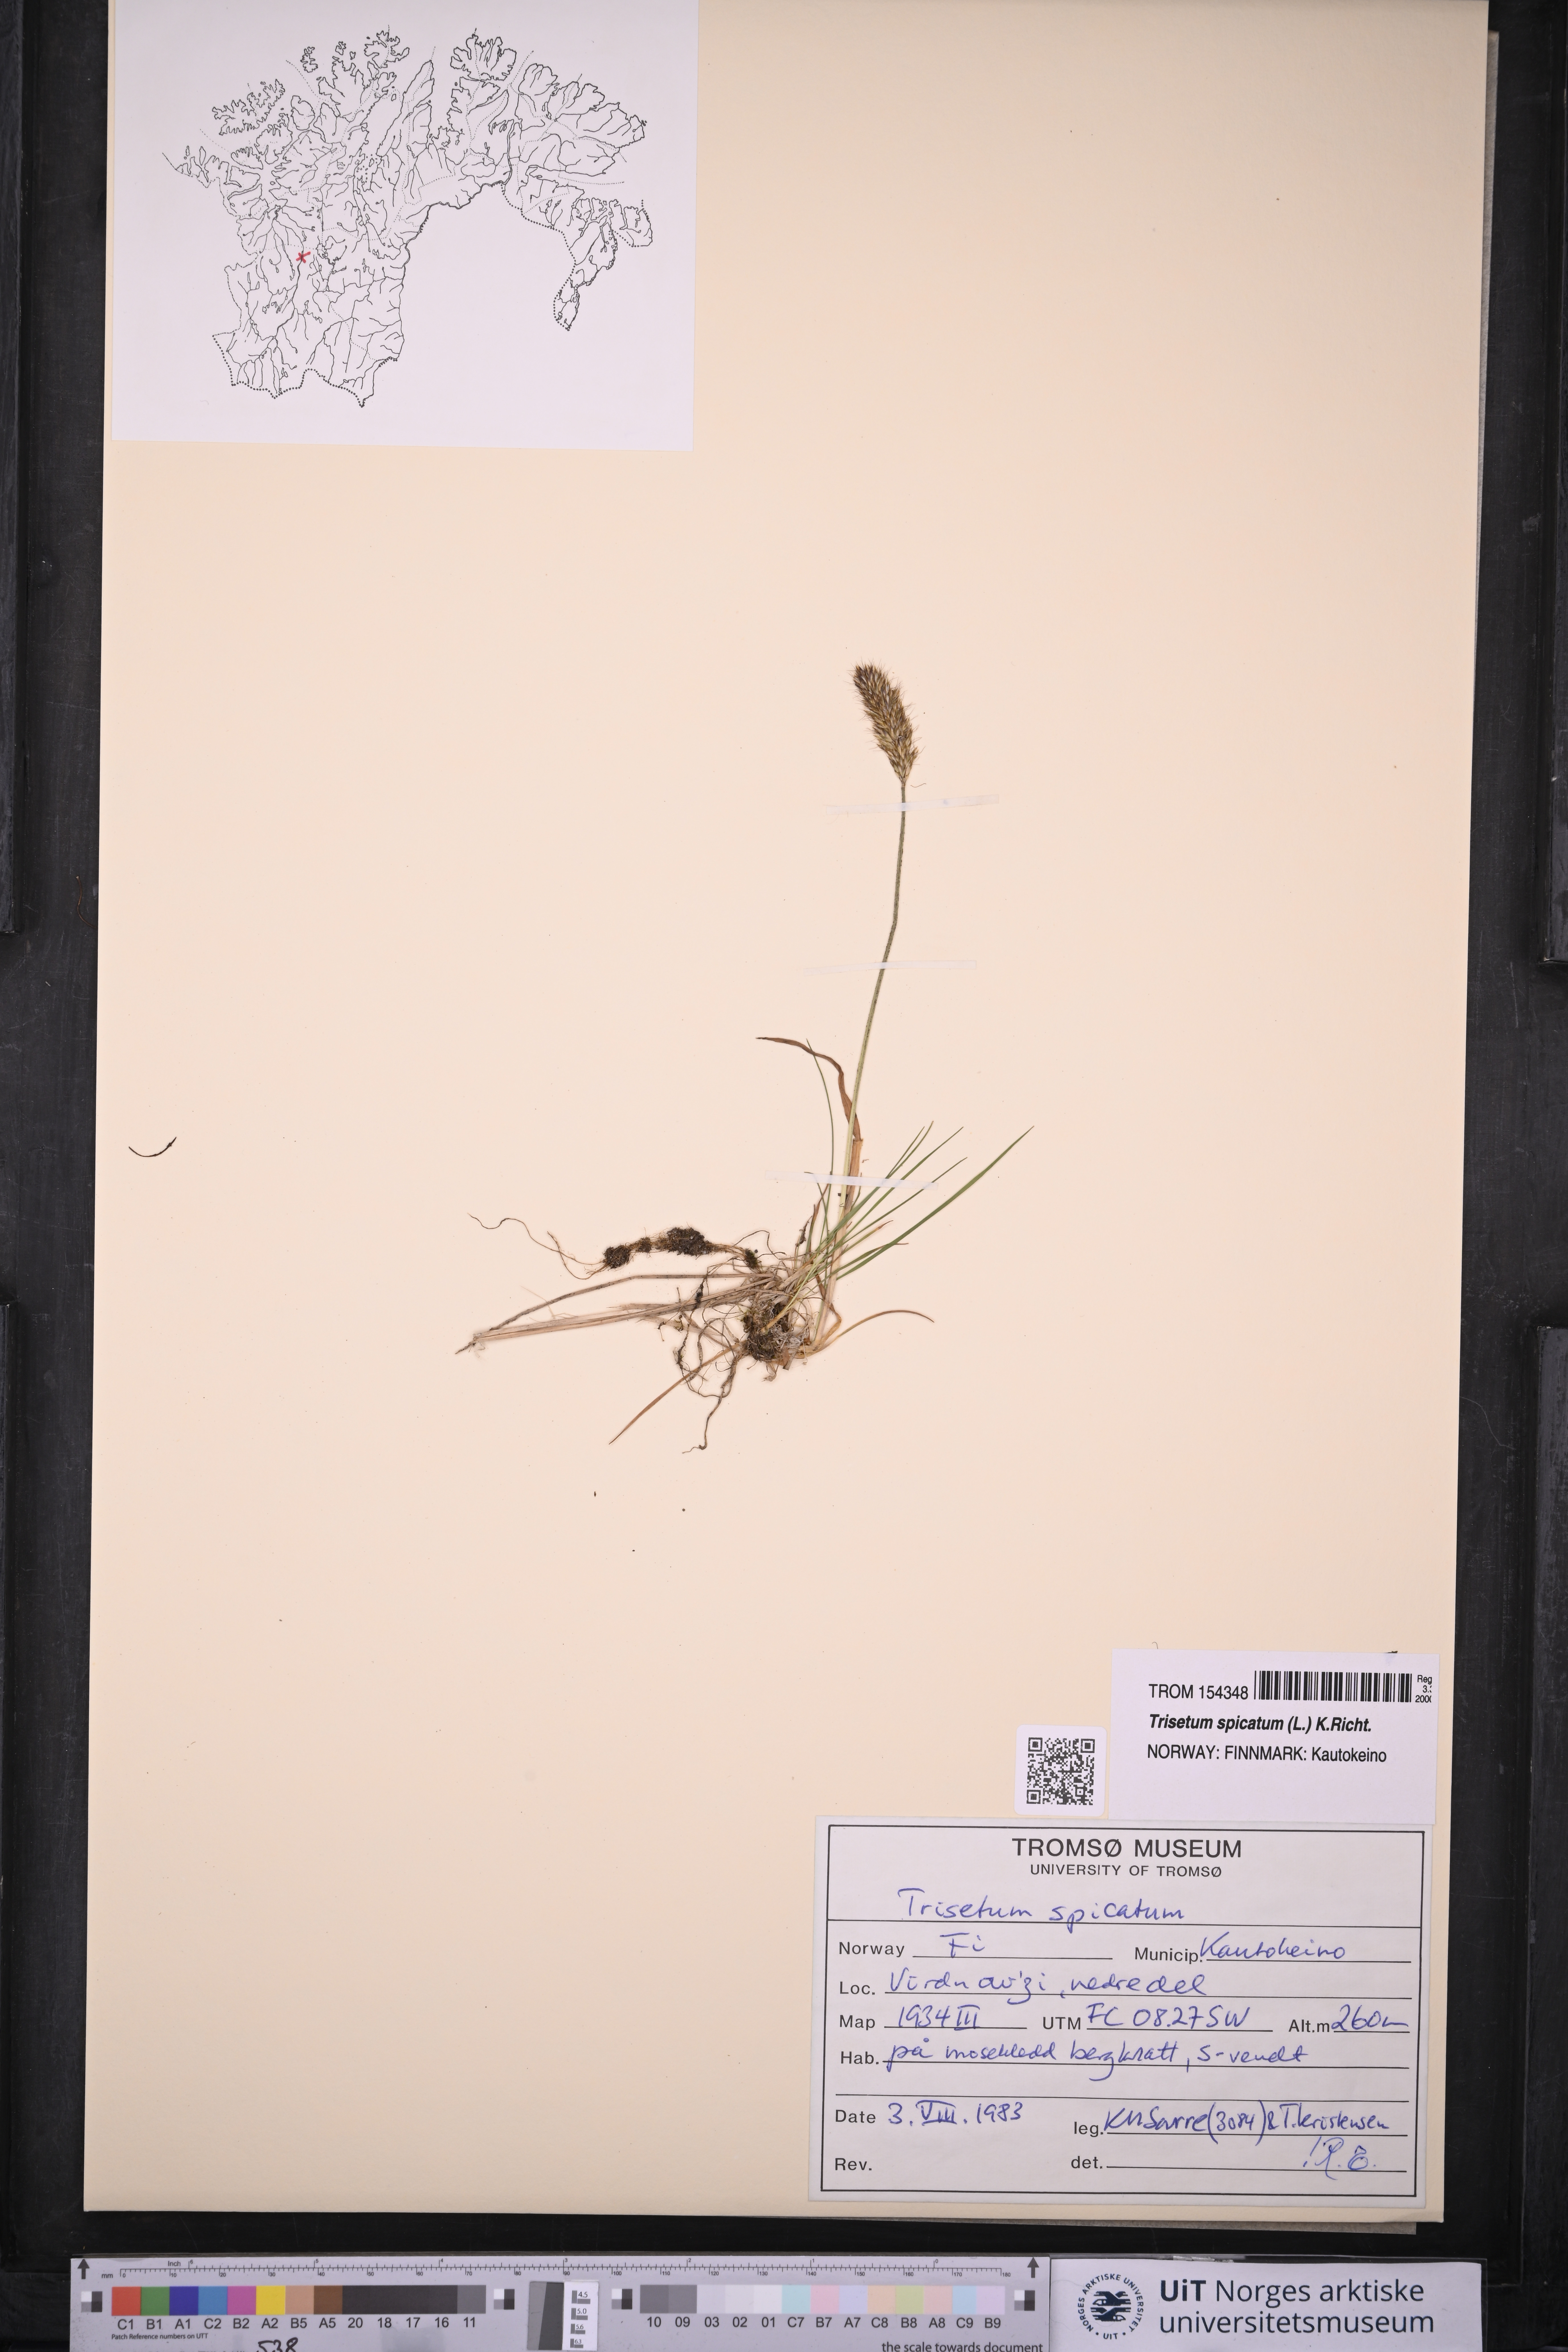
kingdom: Plantae
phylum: Tracheophyta
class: Liliopsida
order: Poales
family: Poaceae
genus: Koeleria
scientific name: Koeleria spicata
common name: Mountain trisetum
